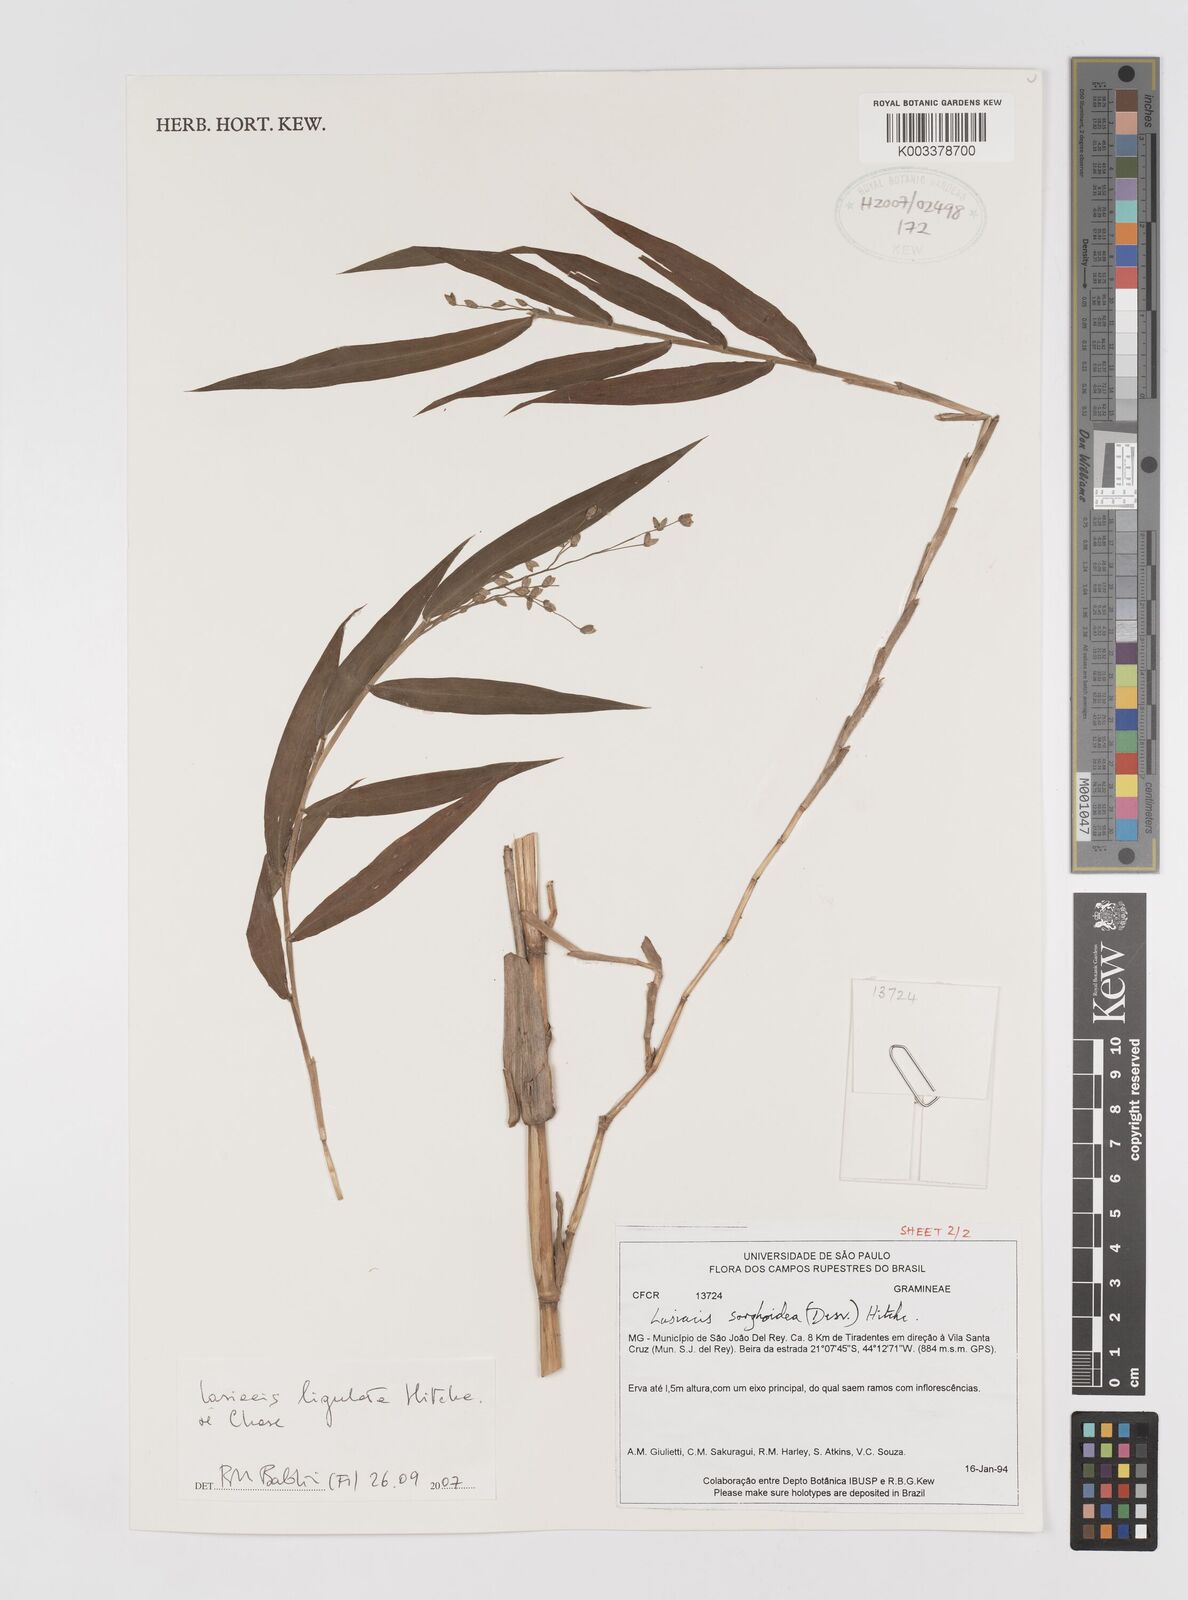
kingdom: Plantae
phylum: Tracheophyta
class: Liliopsida
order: Poales
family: Poaceae
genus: Lasiacis
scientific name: Lasiacis ligulata
